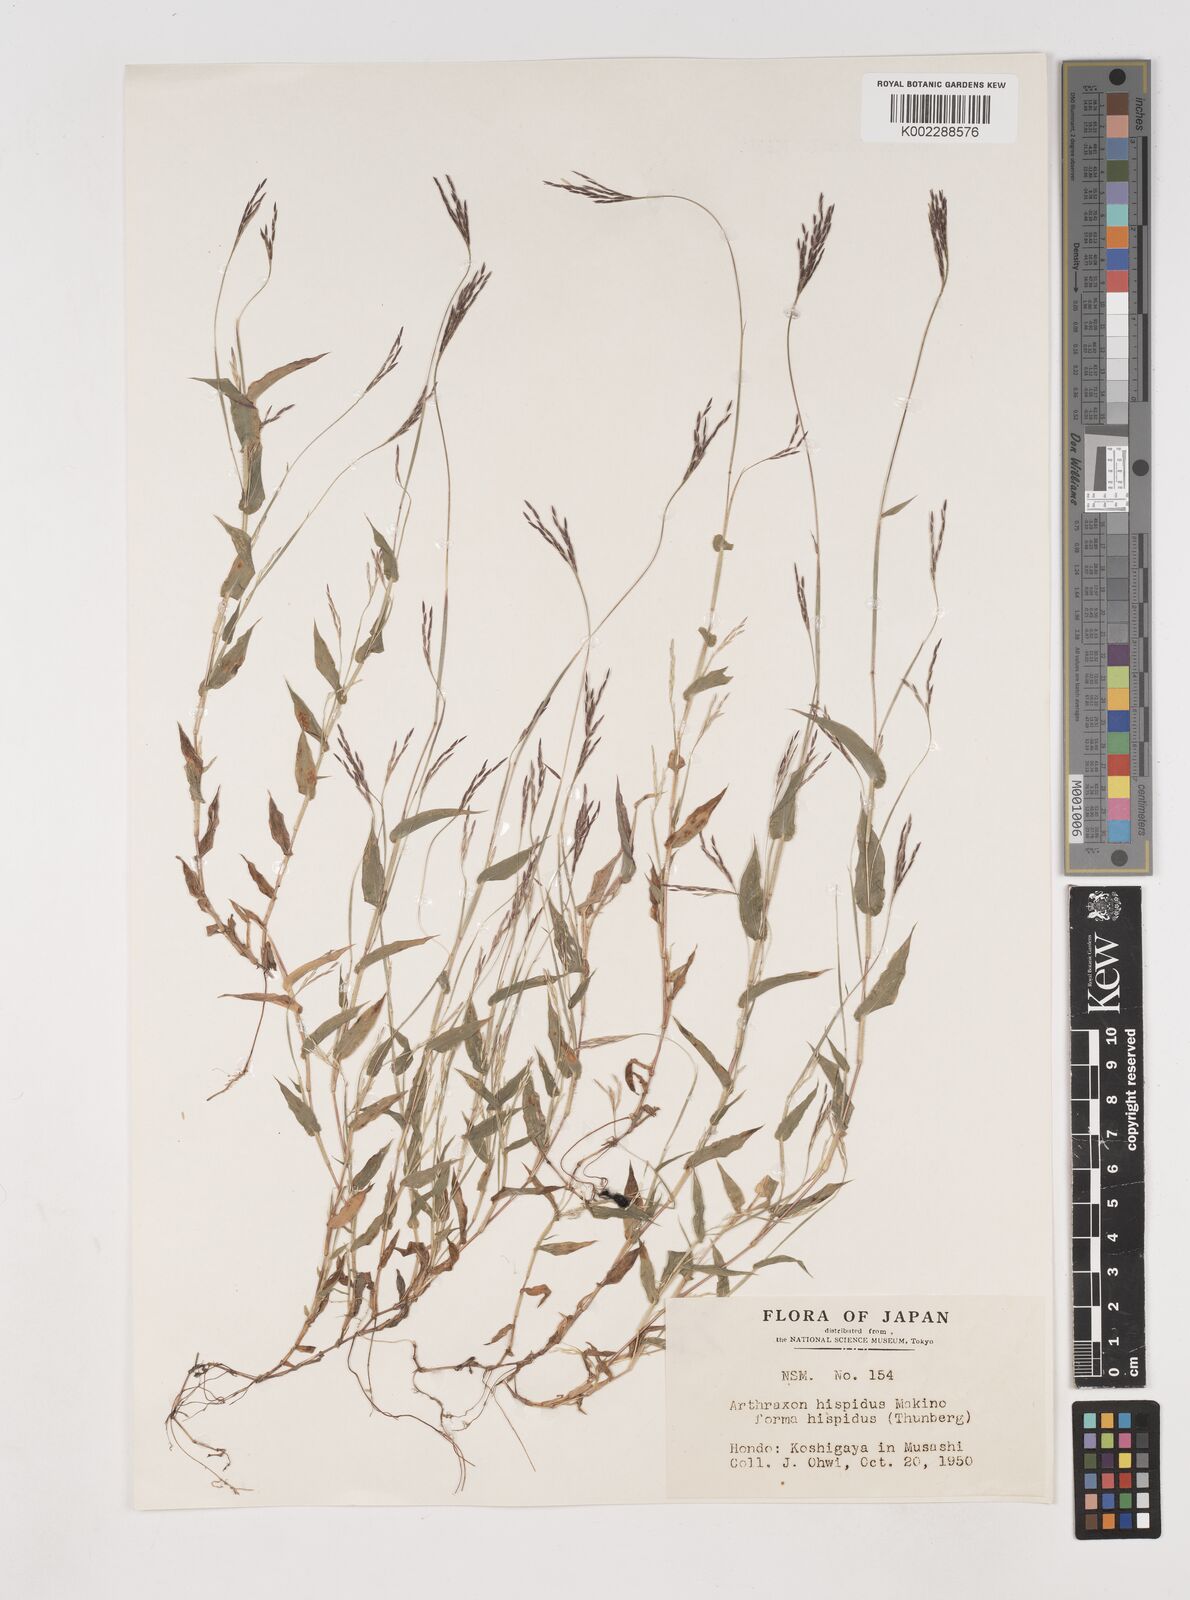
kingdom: Plantae
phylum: Tracheophyta
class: Liliopsida
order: Poales
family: Poaceae
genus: Arthraxon
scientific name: Arthraxon hispidus
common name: Small carpgrass
